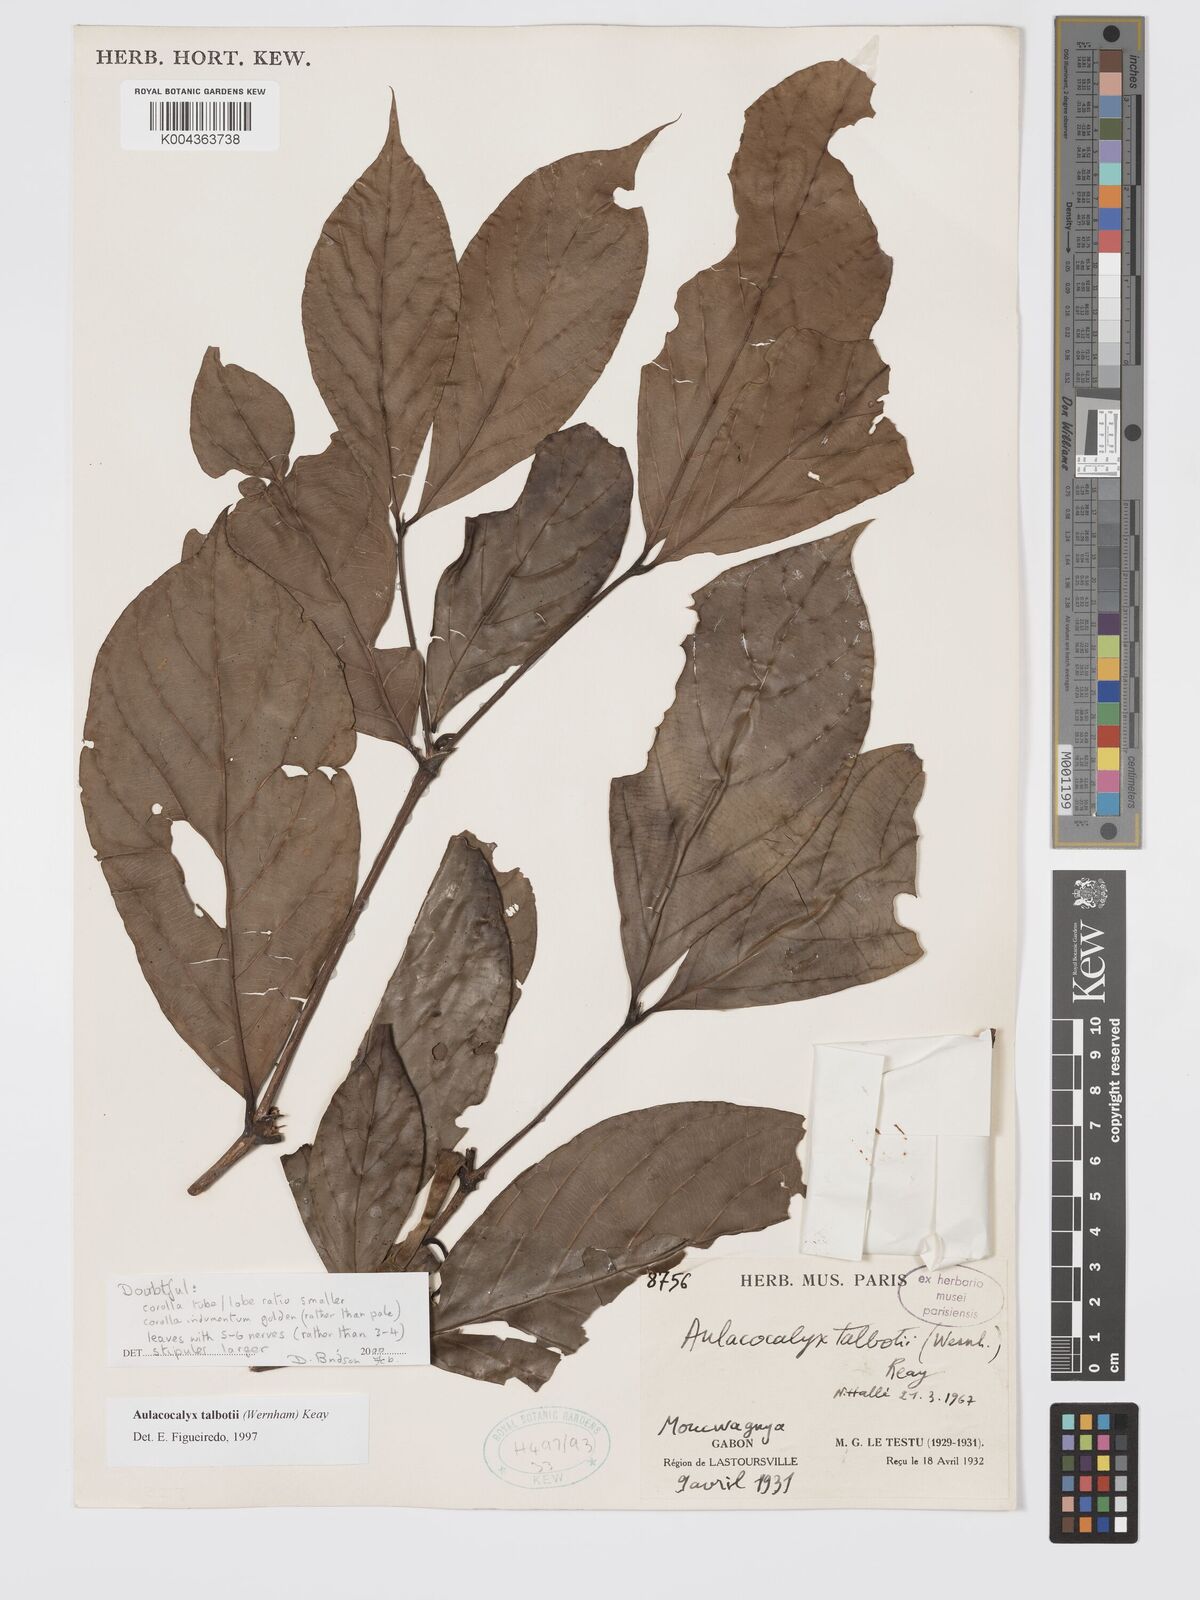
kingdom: Plantae
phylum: Tracheophyta
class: Magnoliopsida
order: Gentianales
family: Rubiaceae
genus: Aulacocalyx
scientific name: Aulacocalyx talbotii
